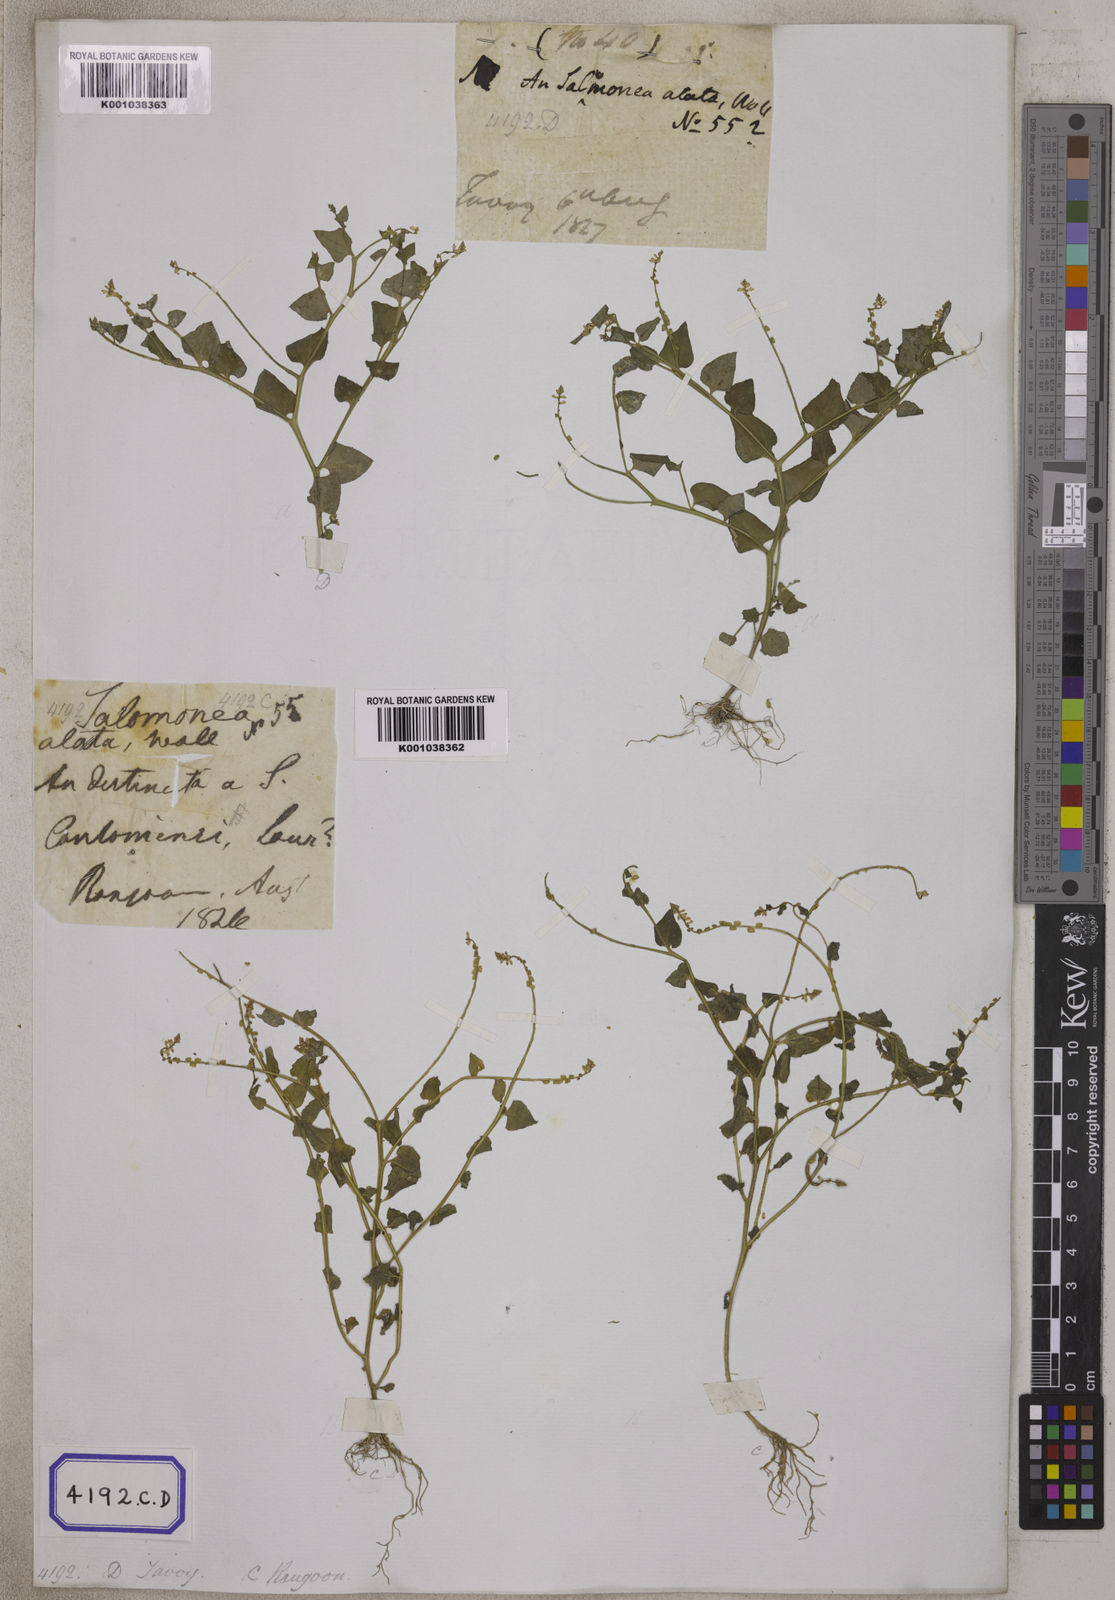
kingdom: Plantae
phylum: Tracheophyta
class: Magnoliopsida
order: Fabales
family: Polygalaceae
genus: Salomonia
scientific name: Salomonia cantoniensis
